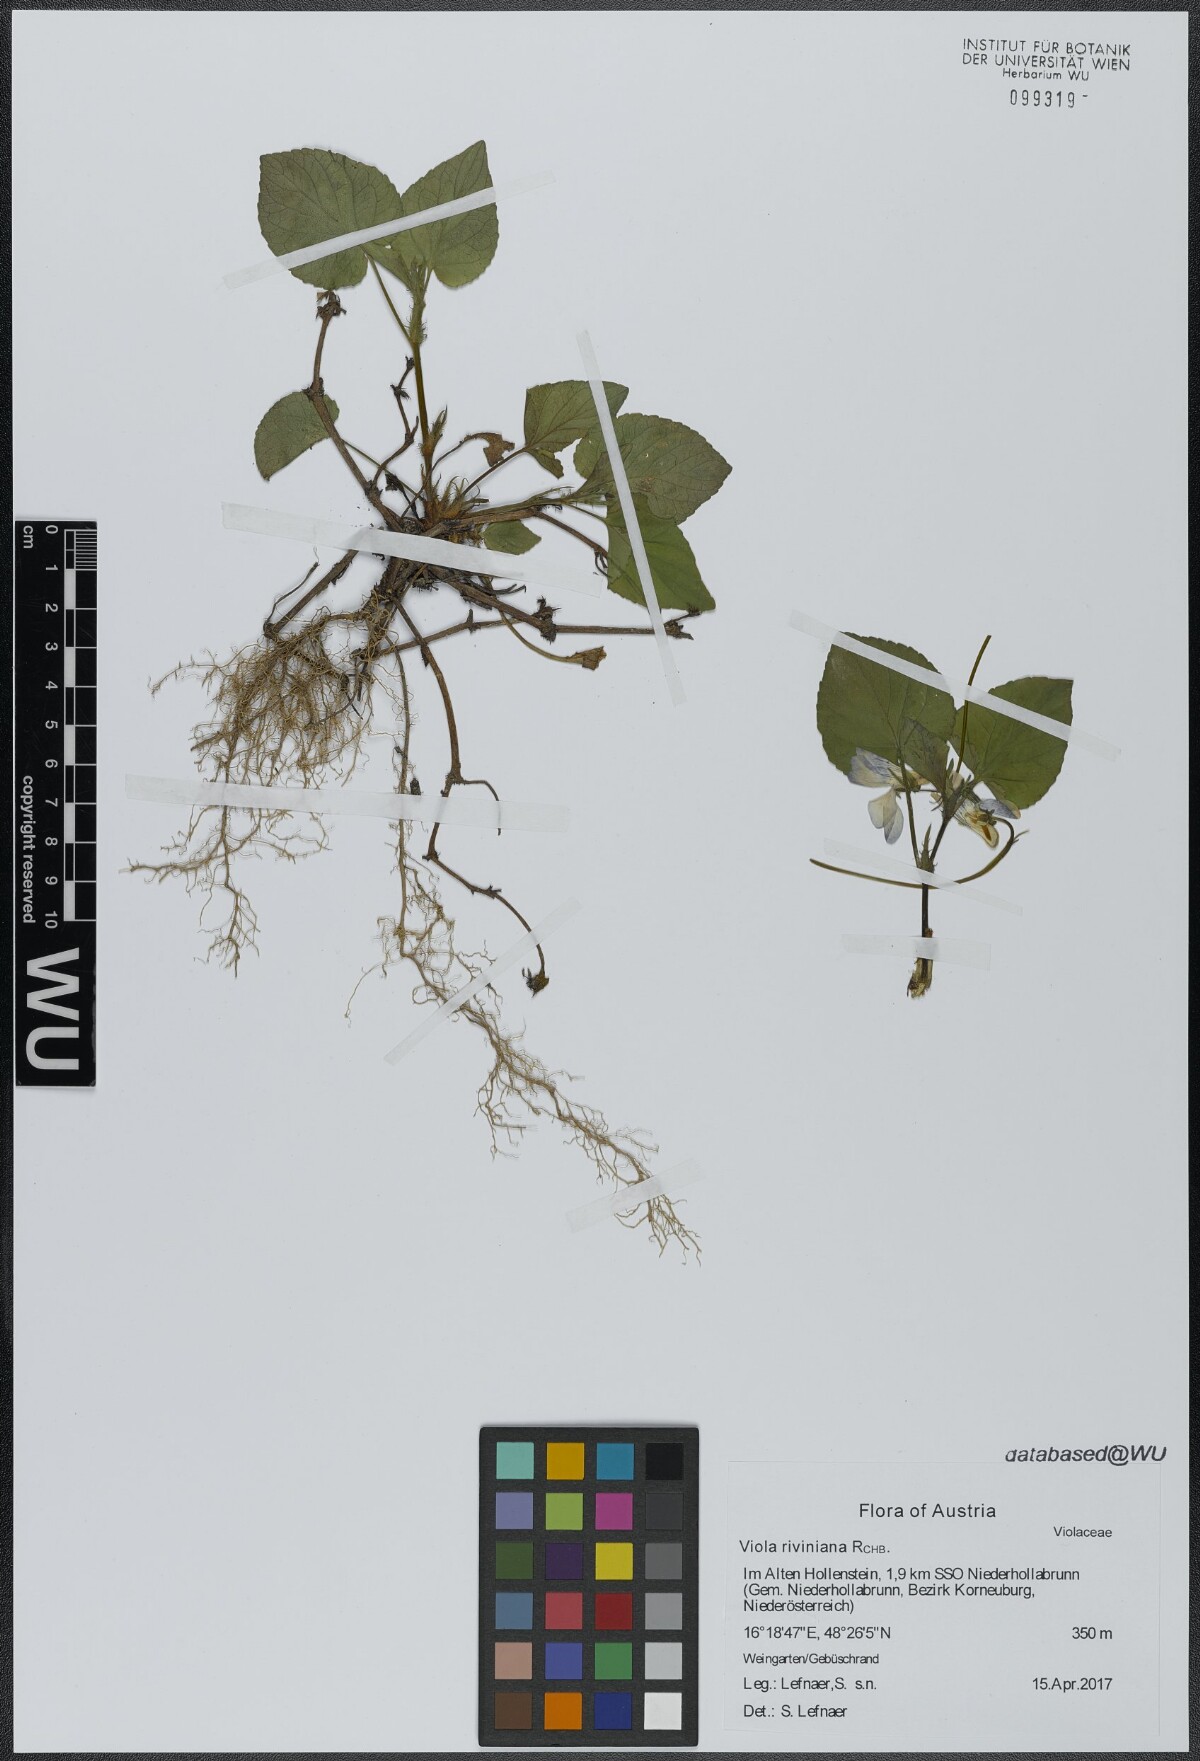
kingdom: Plantae
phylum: Tracheophyta
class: Magnoliopsida
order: Malpighiales
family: Violaceae
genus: Viola
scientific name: Viola riviniana
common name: Common dog-violet
